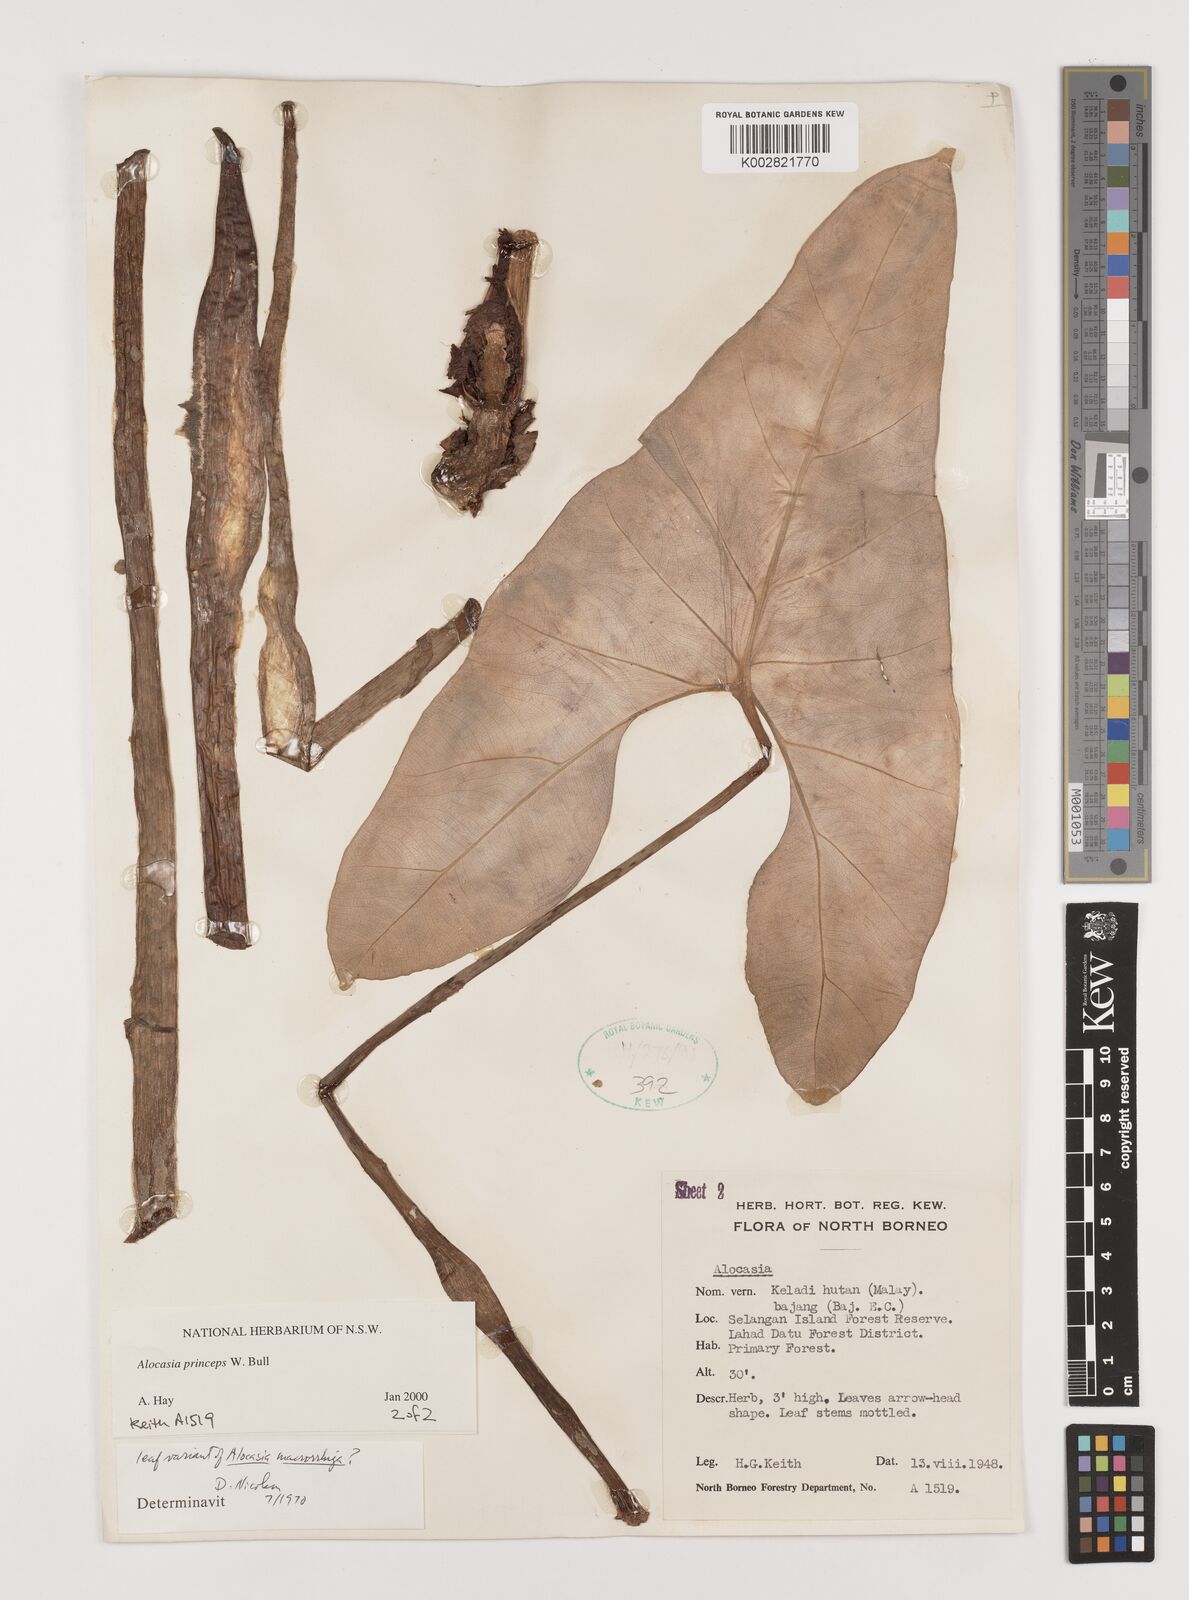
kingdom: Plantae
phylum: Tracheophyta
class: Liliopsida
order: Alismatales
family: Araceae
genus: Alocasia
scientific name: Alocasia princeps
